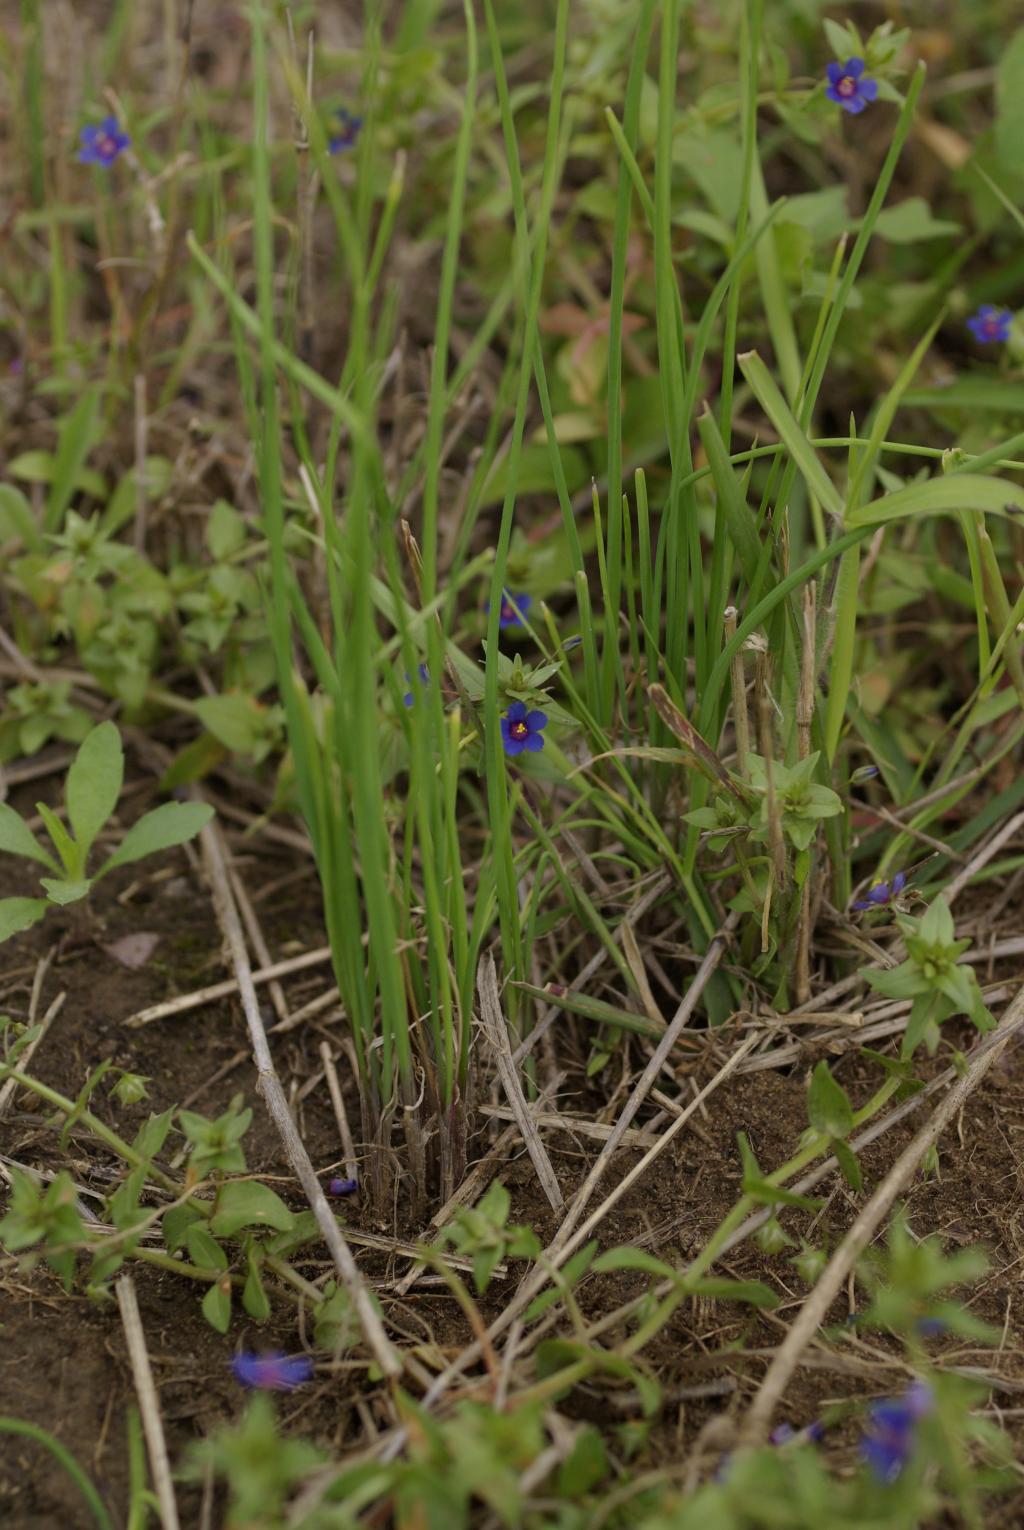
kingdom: Plantae
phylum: Tracheophyta
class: Liliopsida
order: Asparagales
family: Amaryllidaceae
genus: Allium
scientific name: Allium macrostemon
